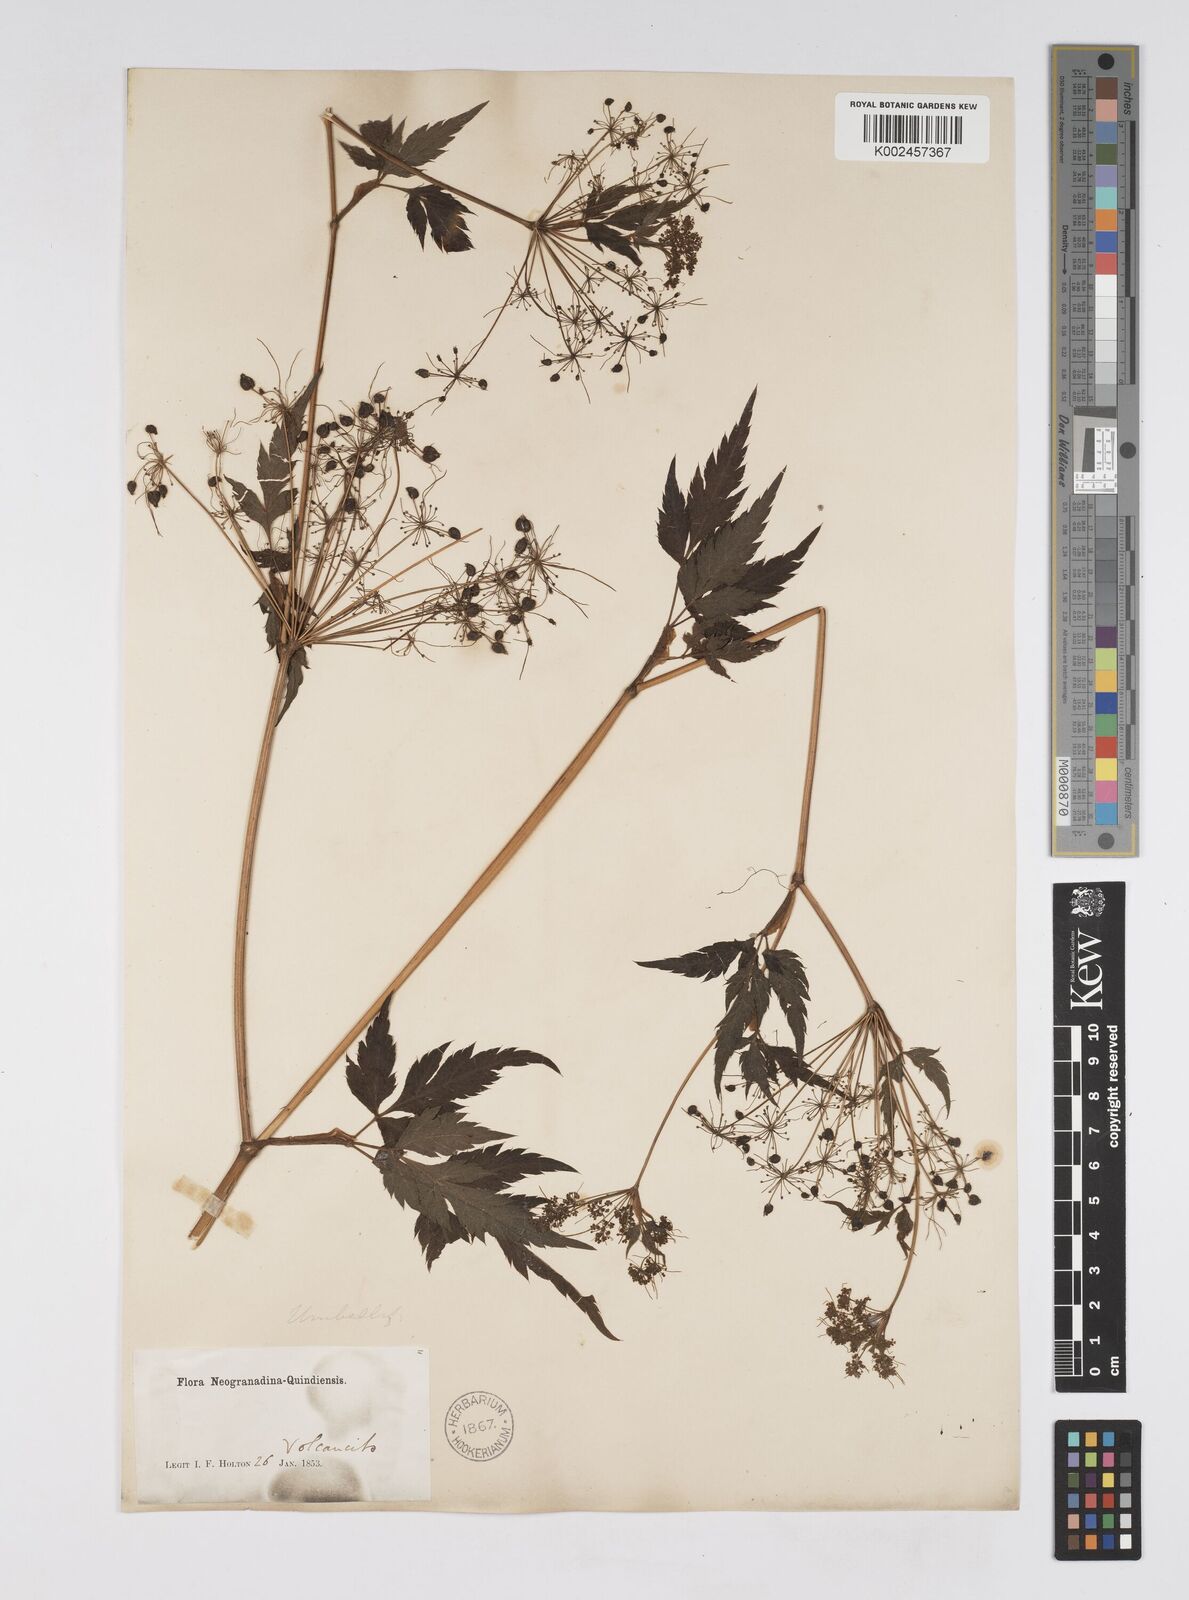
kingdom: Plantae
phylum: Tracheophyta
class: Magnoliopsida
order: Apiales
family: Apiaceae
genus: Neonelsonia
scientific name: Neonelsonia acuminata
